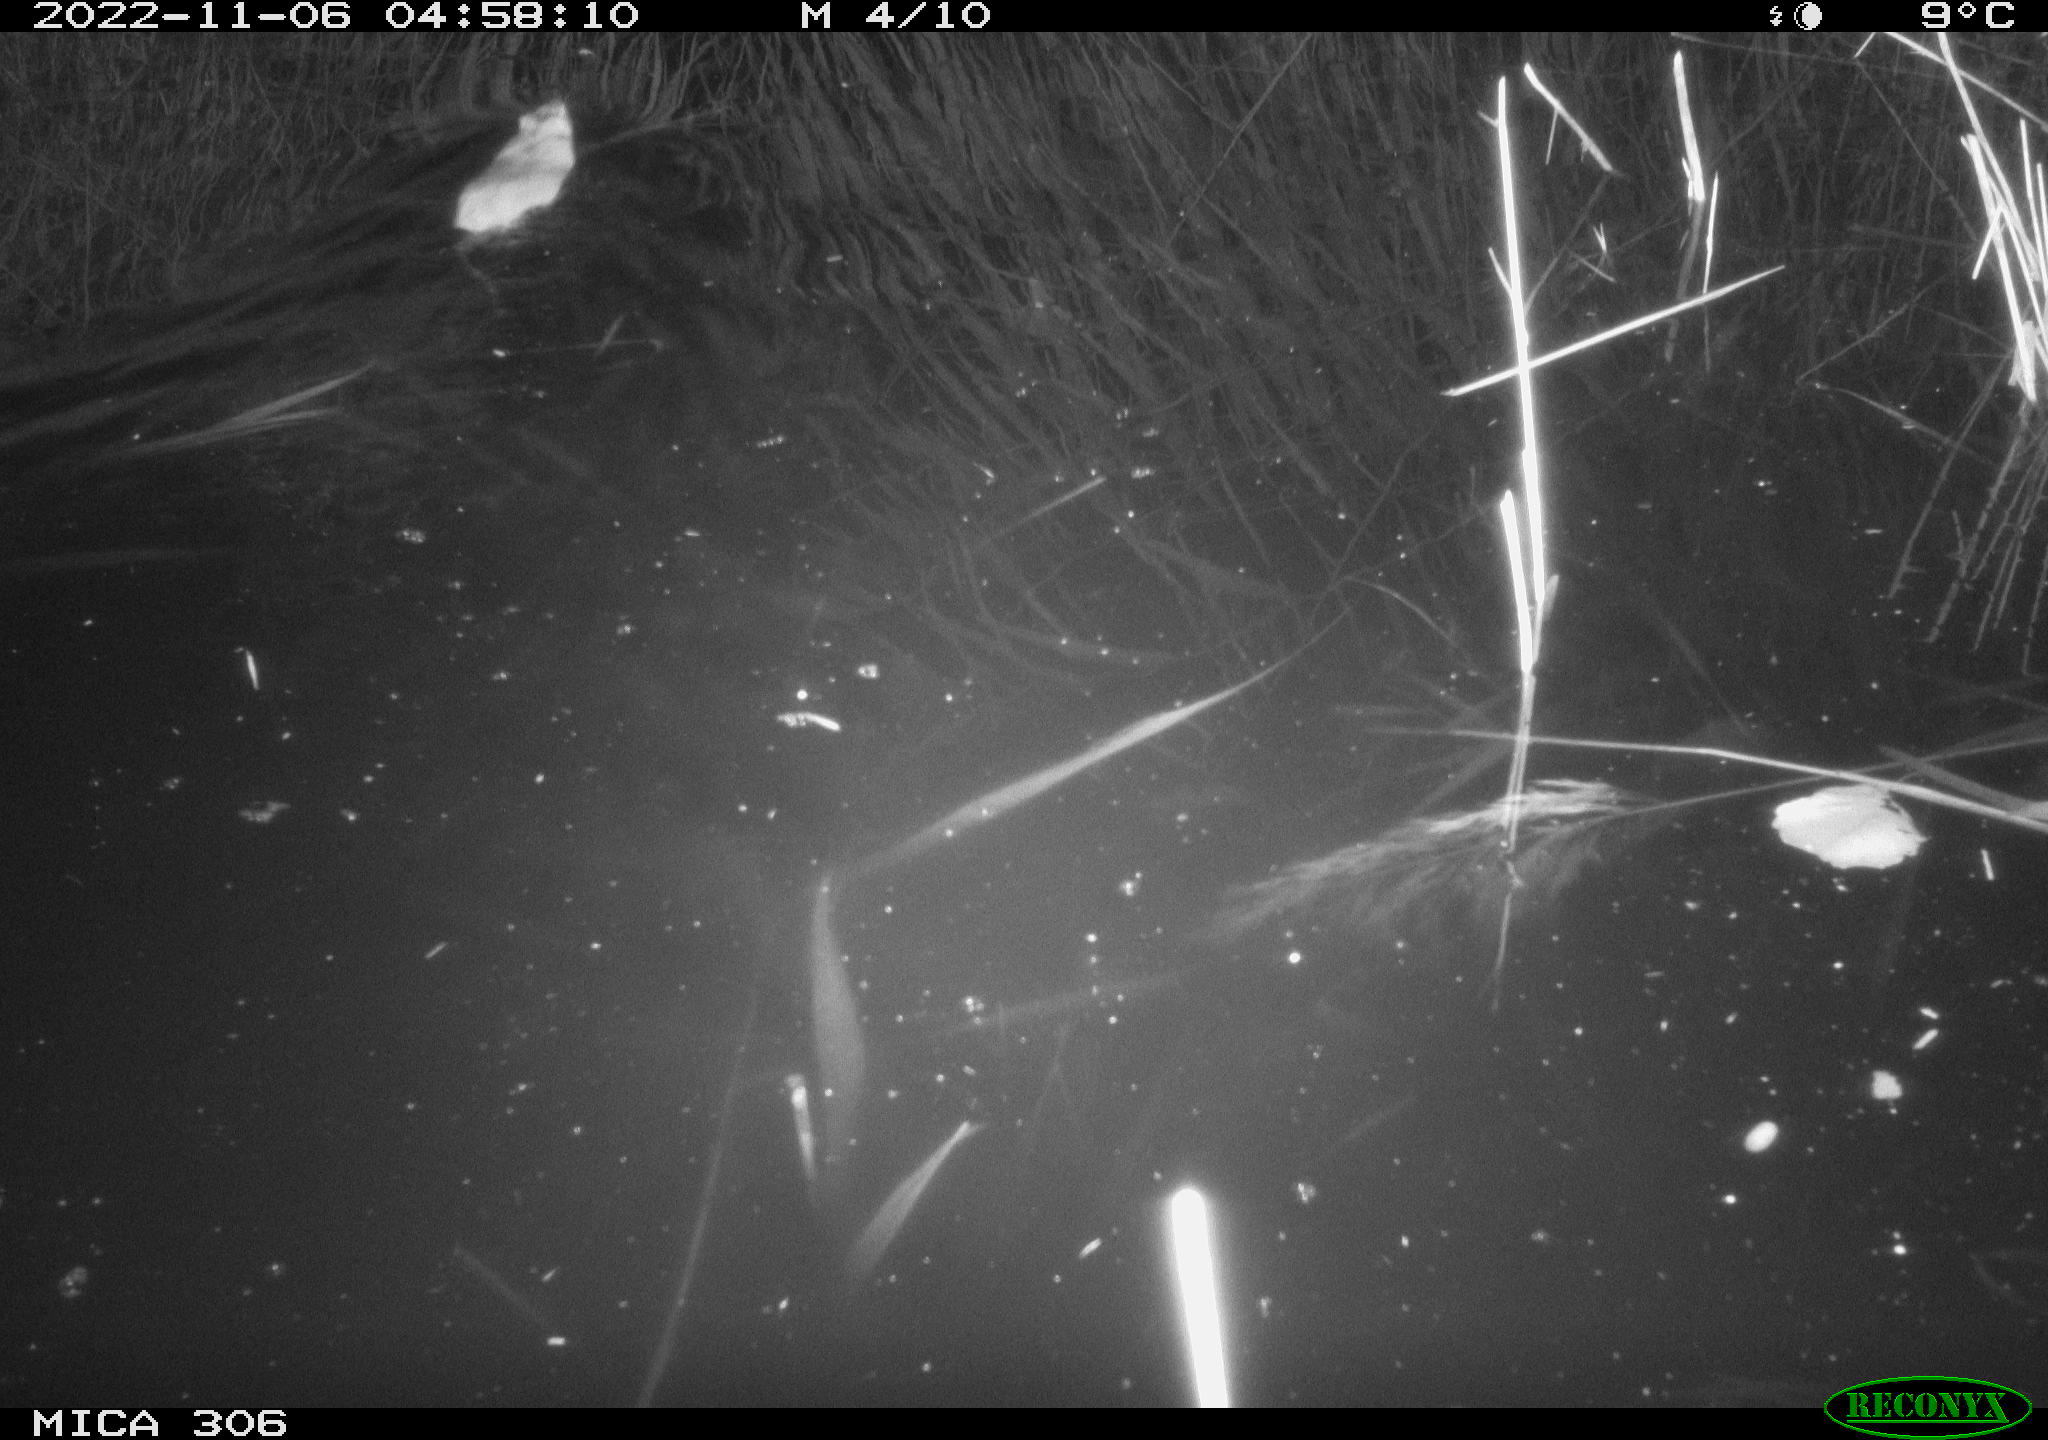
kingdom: Animalia
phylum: Chordata
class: Mammalia
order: Rodentia
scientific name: Rodentia
